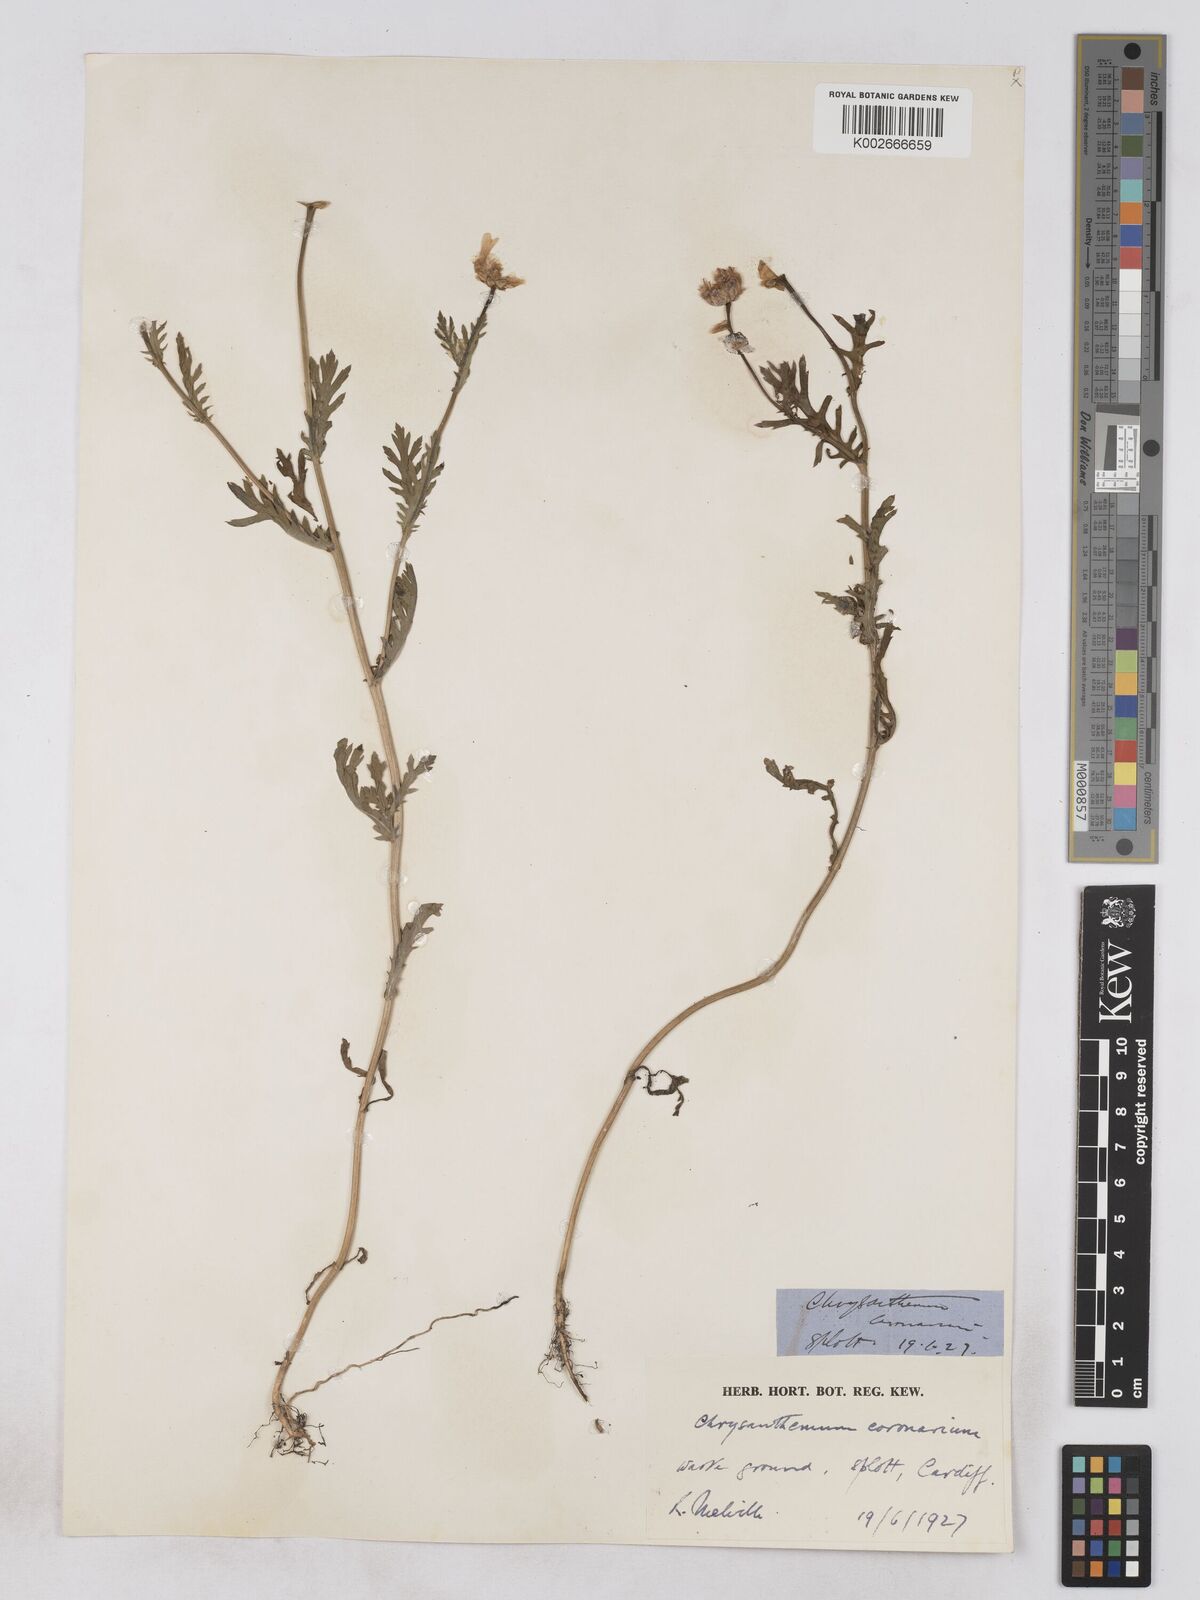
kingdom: Plantae
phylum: Tracheophyta
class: Magnoliopsida
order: Asterales
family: Asteraceae
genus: Glebionis
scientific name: Glebionis coronaria
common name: Crowndaisy
